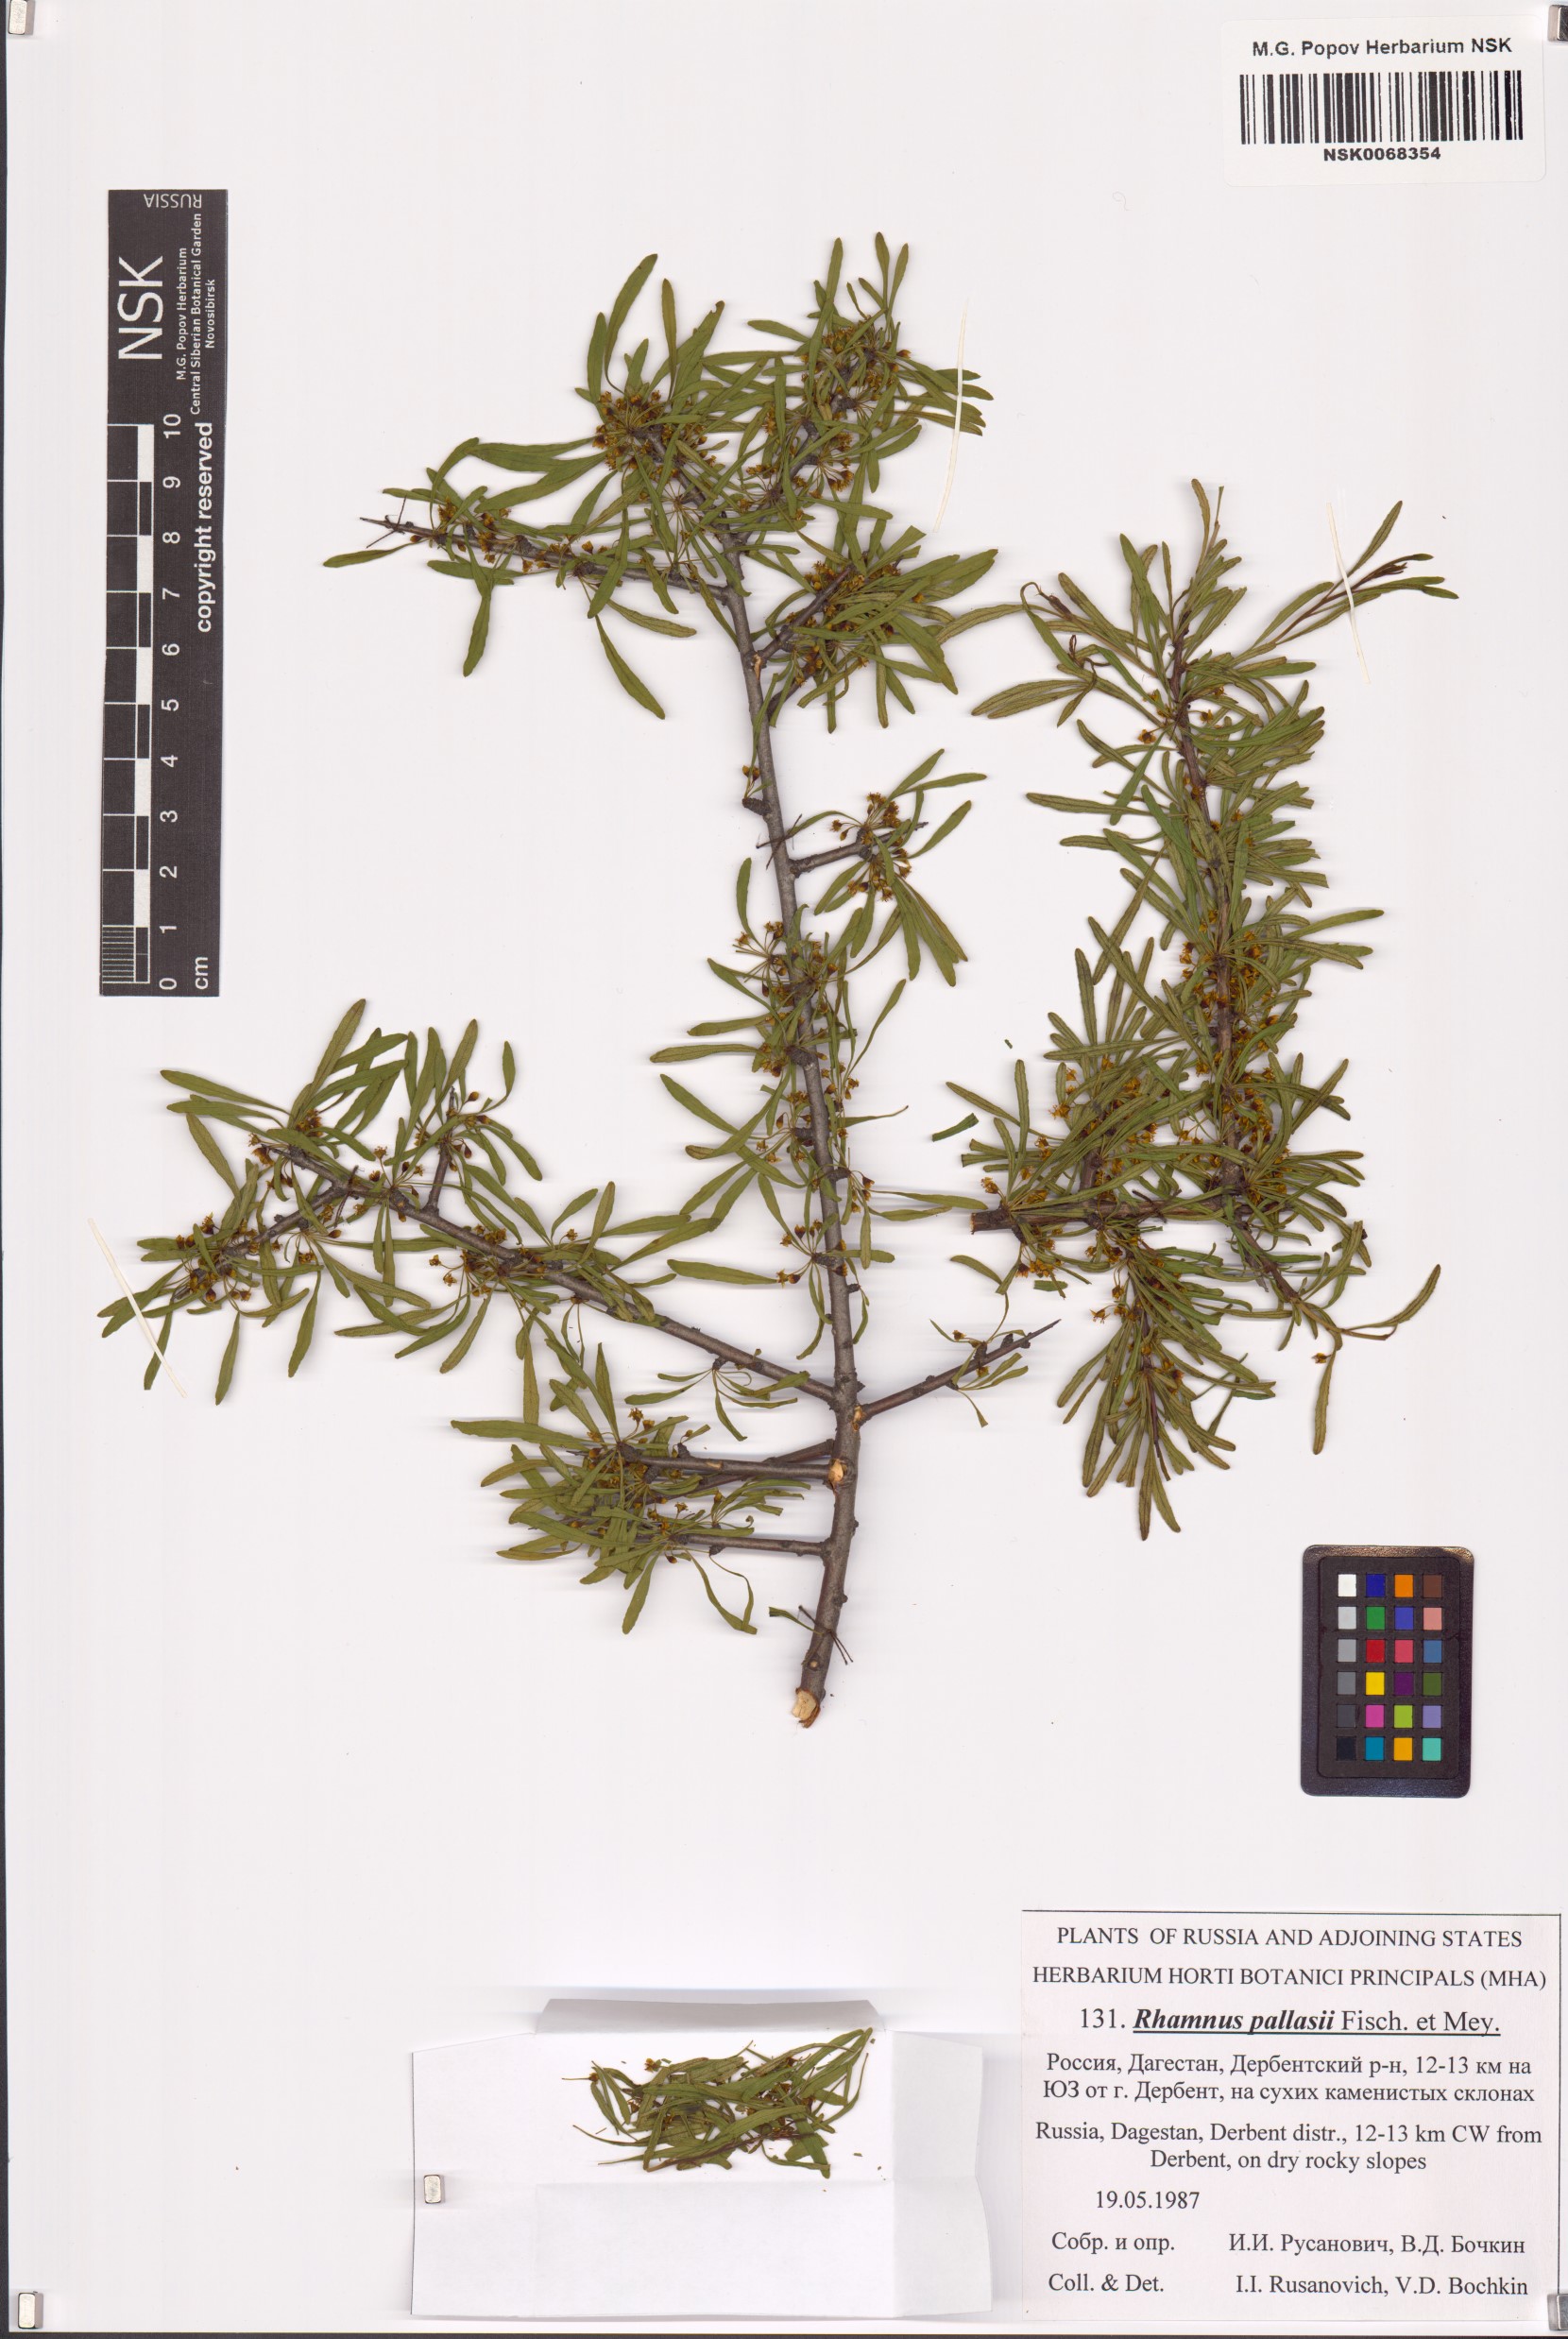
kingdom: Plantae
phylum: Tracheophyta
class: Magnoliopsida
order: Rosales
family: Rhamnaceae
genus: Rhamnus
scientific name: Rhamnus erythroxyloides
